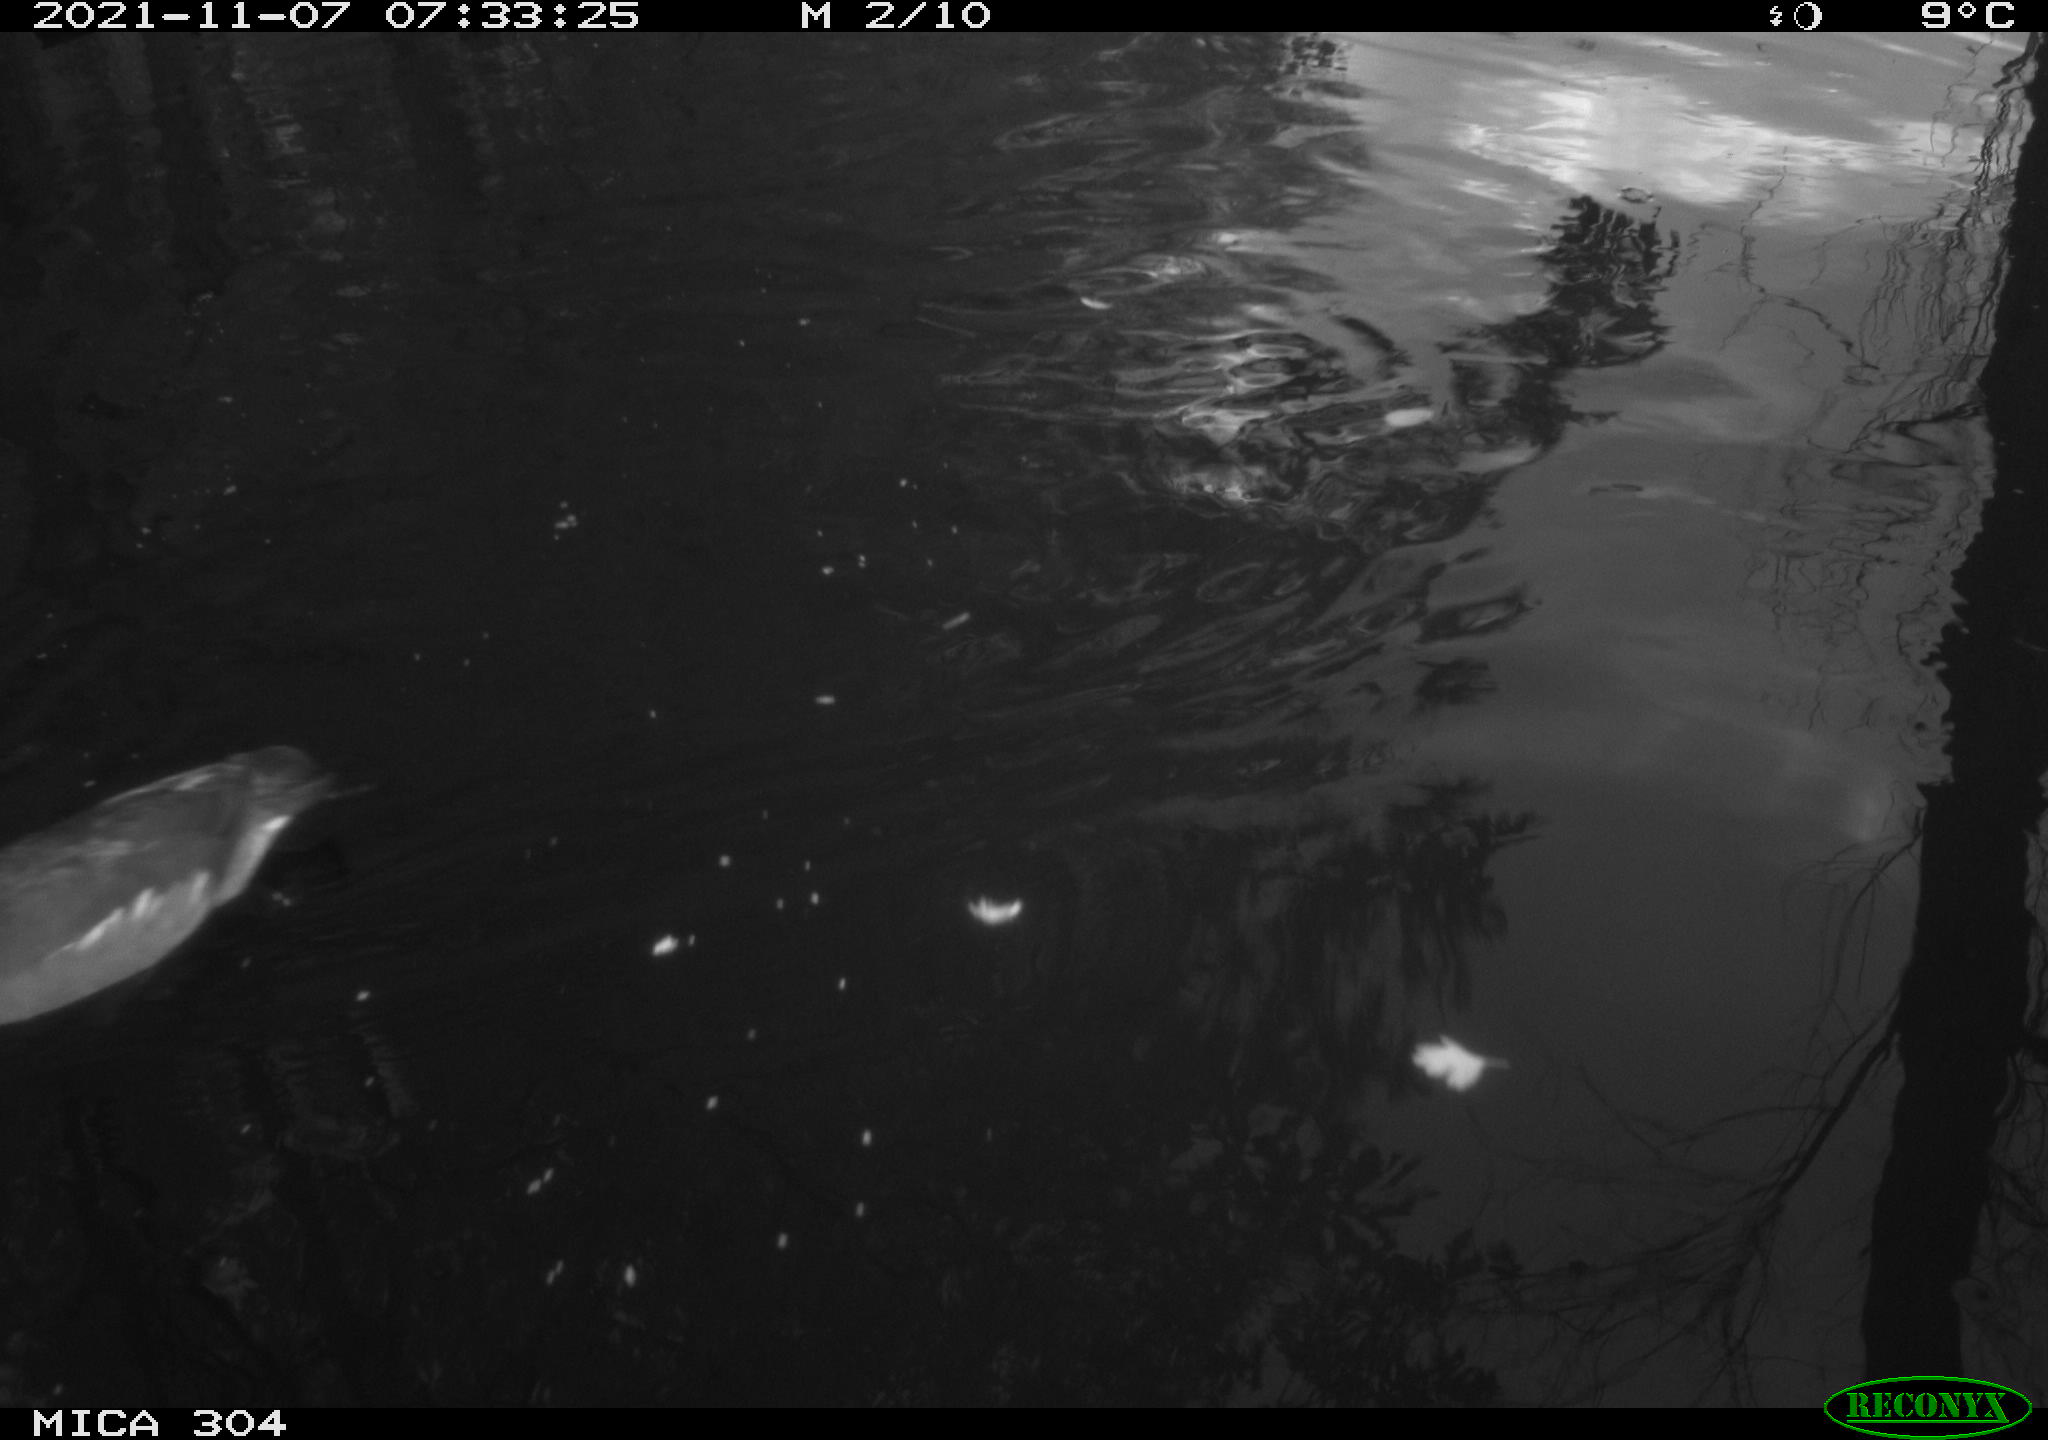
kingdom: Animalia
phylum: Chordata
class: Aves
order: Gruiformes
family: Rallidae
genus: Fulica
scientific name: Fulica atra
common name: Eurasian coot
